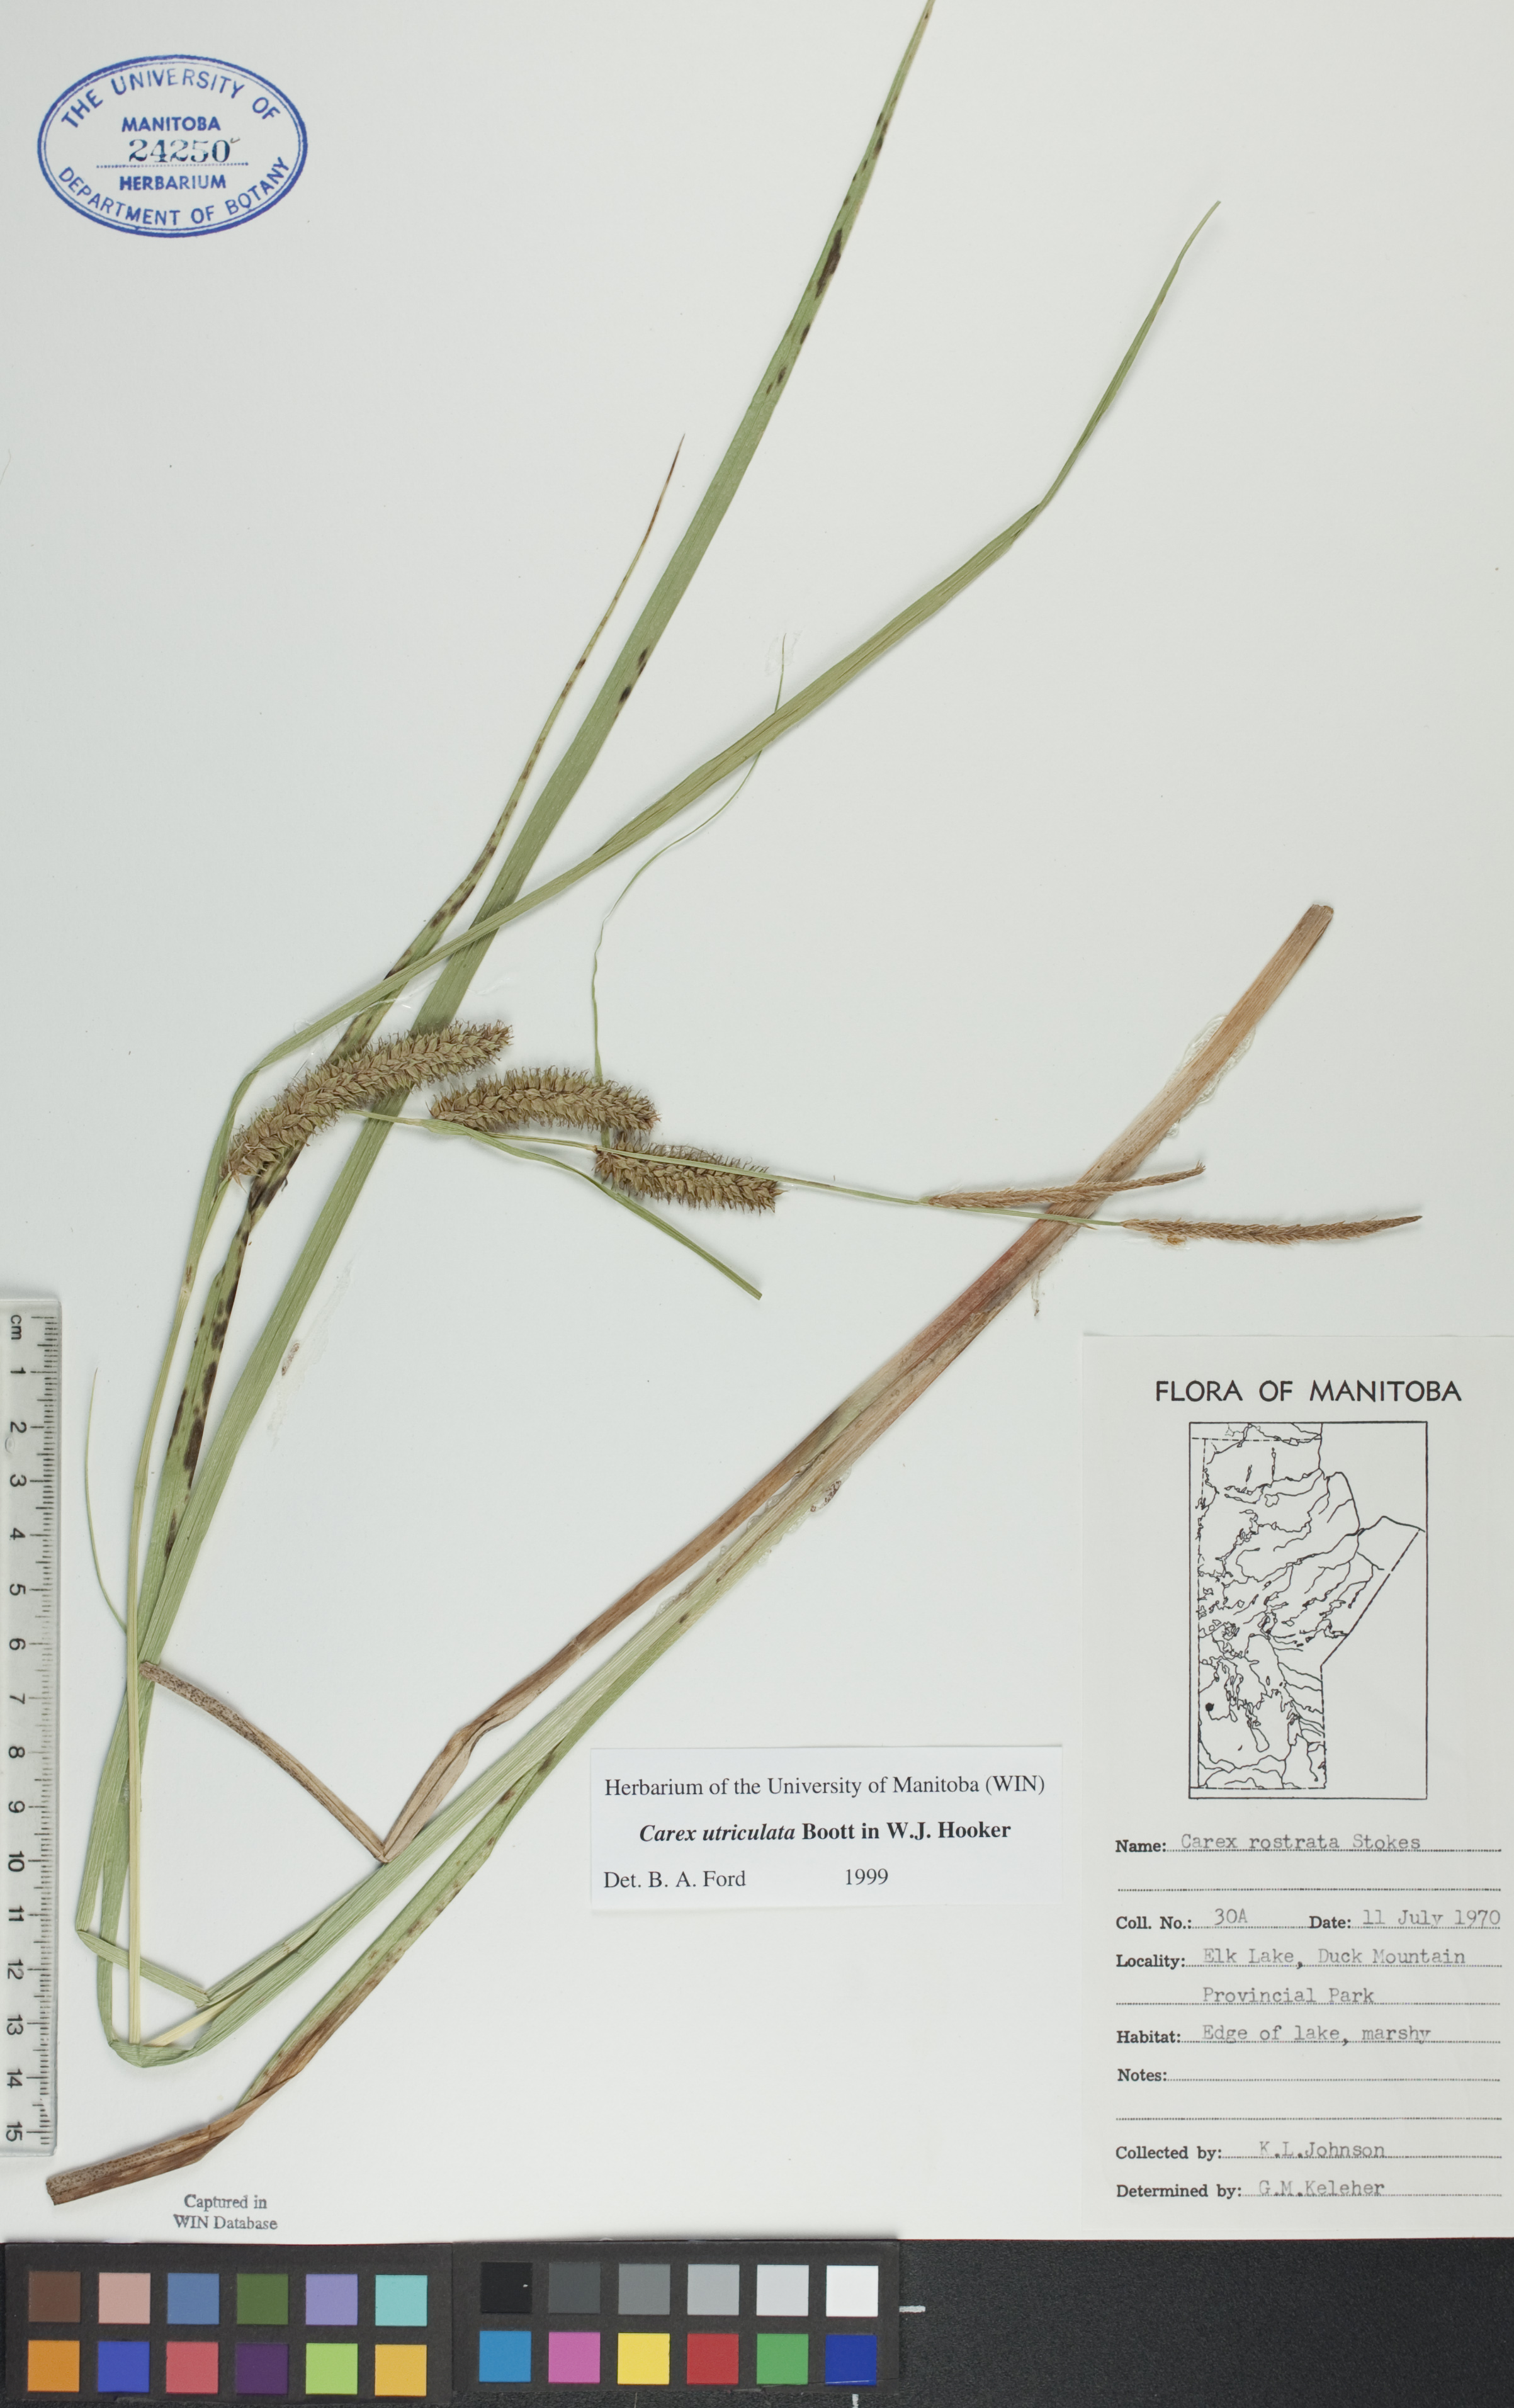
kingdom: Plantae
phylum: Tracheophyta
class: Liliopsida
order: Poales
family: Cyperaceae
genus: Carex
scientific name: Carex rostrata
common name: Bottle sedge
